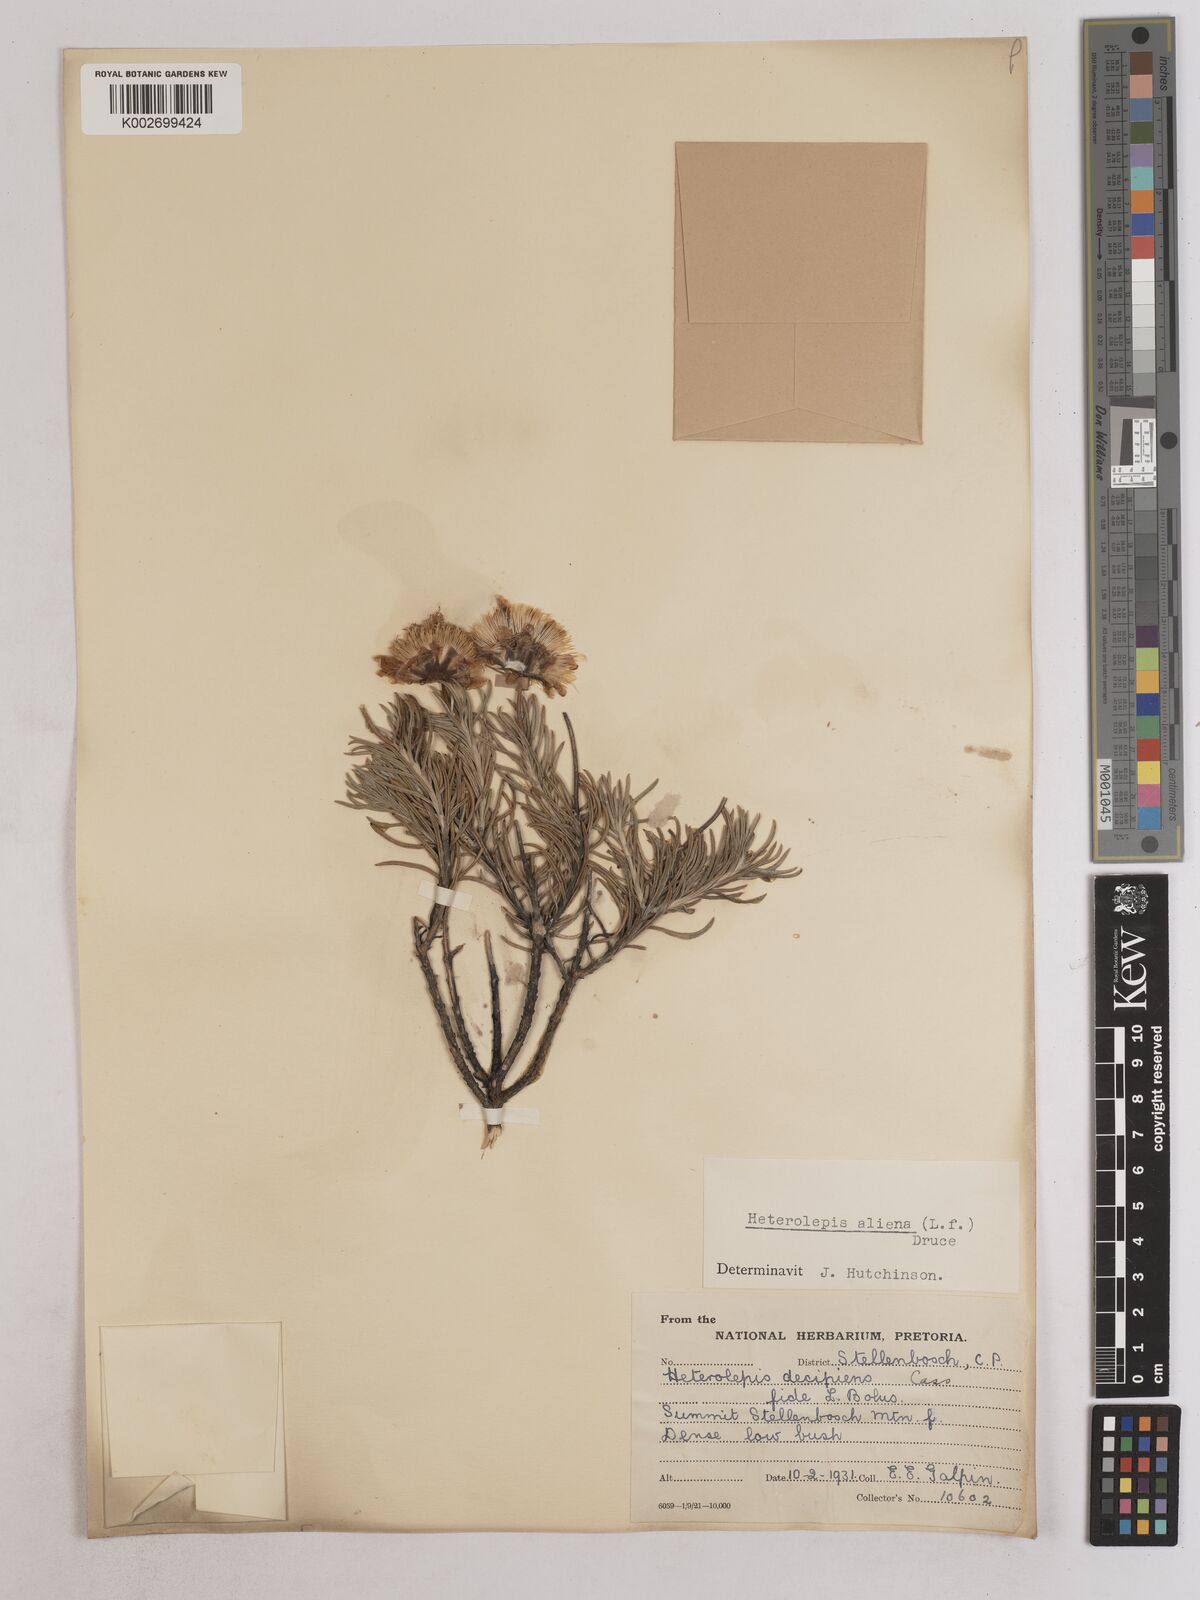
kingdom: Plantae
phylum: Tracheophyta
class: Magnoliopsida
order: Asterales
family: Asteraceae
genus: Heterolepis
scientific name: Heterolepis aliena
